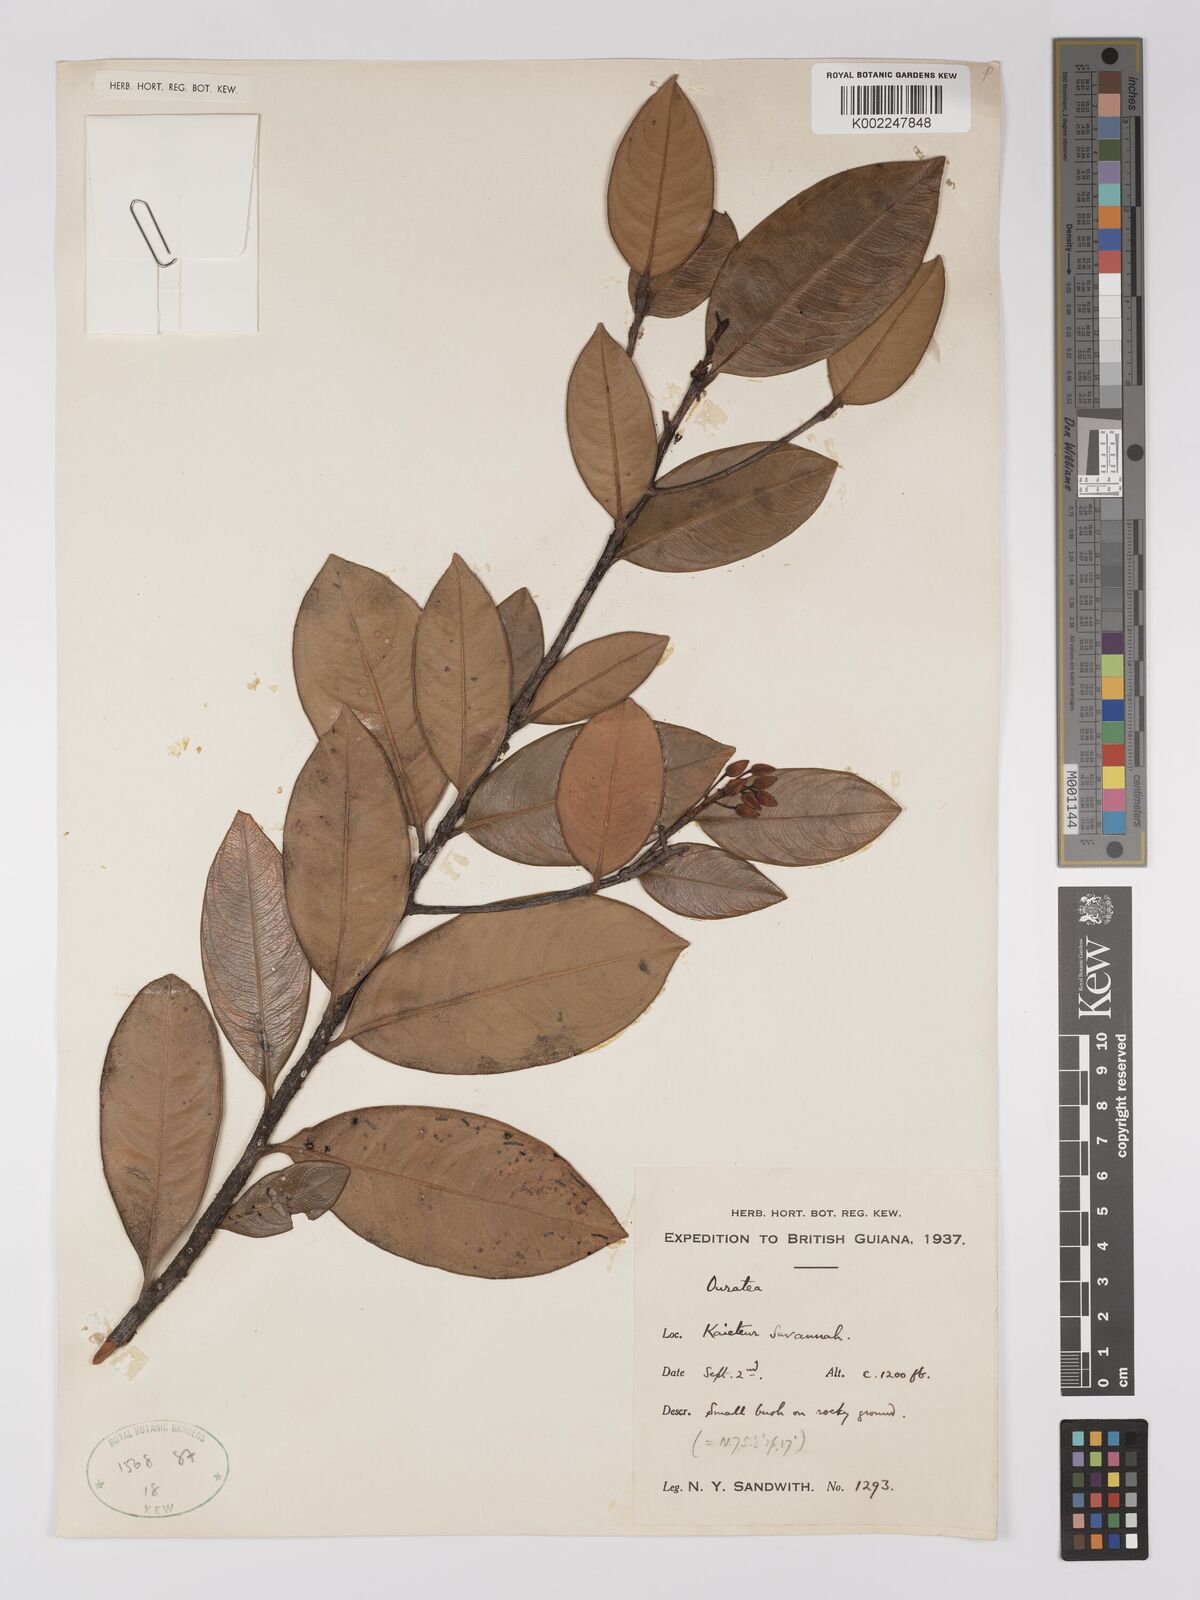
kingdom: Plantae
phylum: Tracheophyta
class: Magnoliopsida
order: Malpighiales
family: Ochnaceae
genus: Ouratea
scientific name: Ouratea
